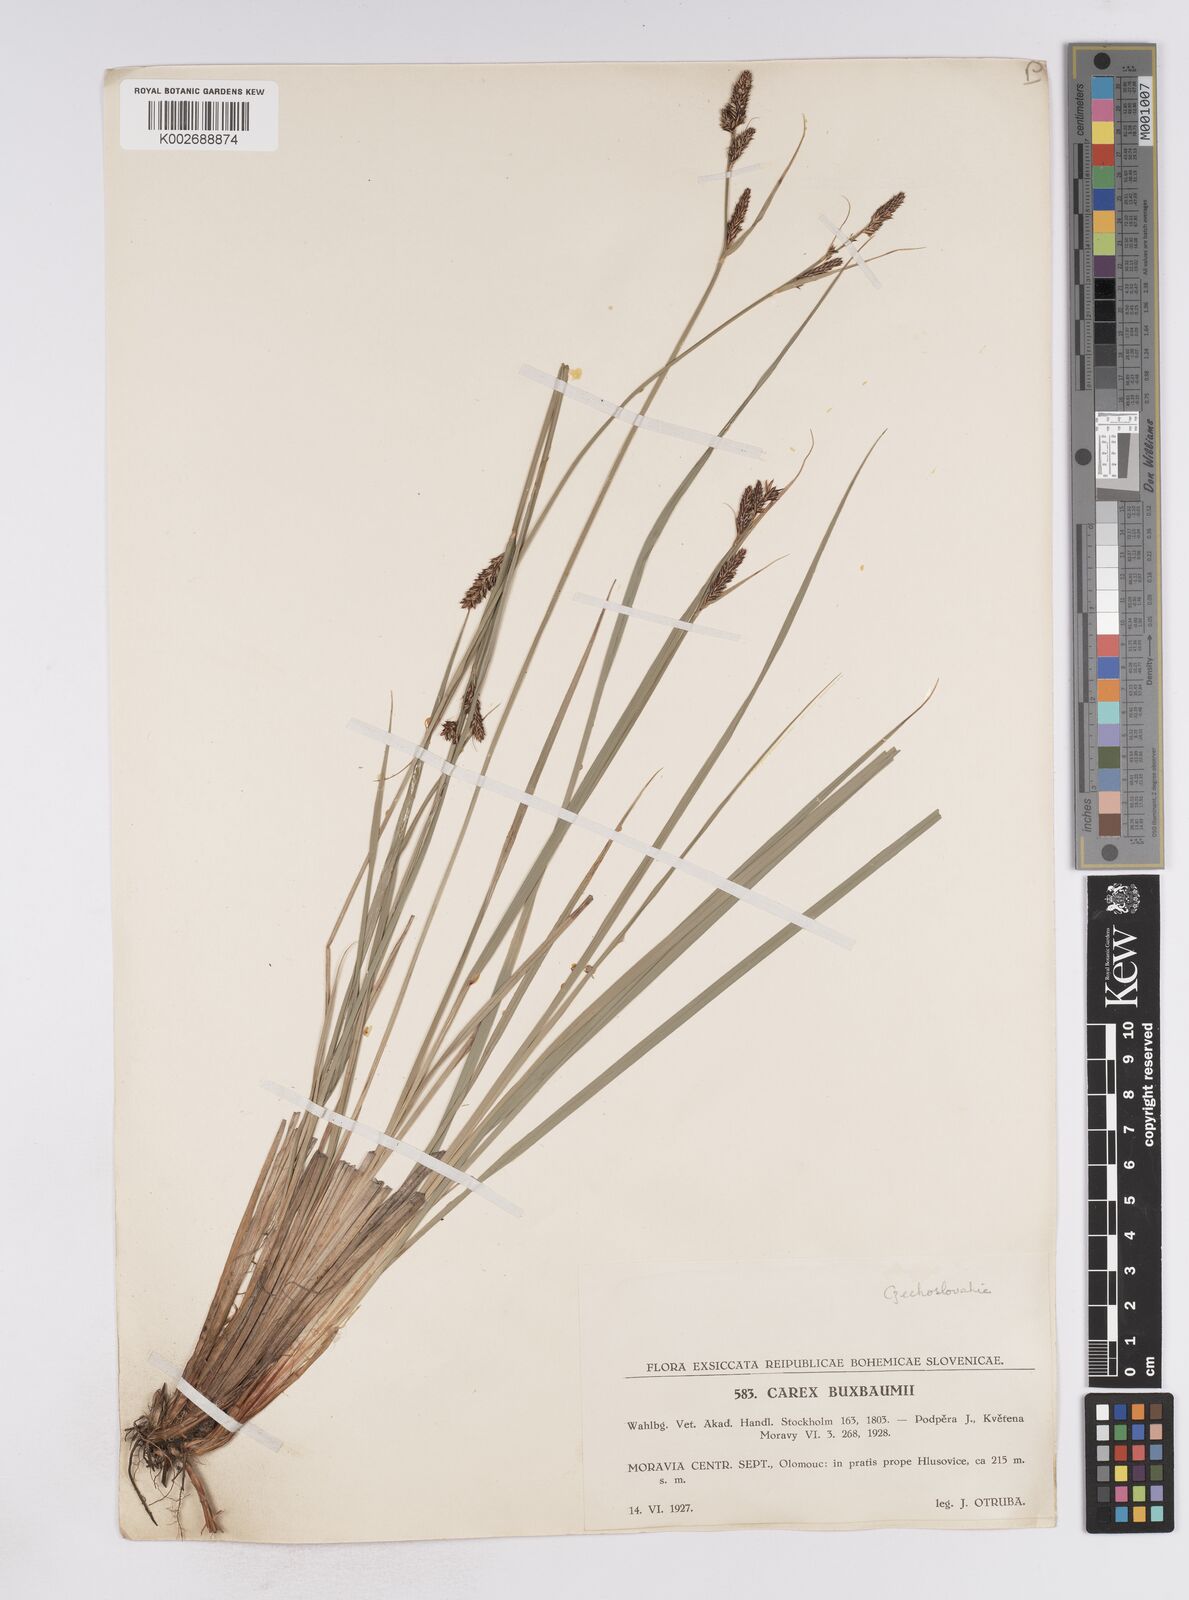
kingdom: Plantae
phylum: Tracheophyta
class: Liliopsida
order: Poales
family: Cyperaceae
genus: Carex
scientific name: Carex buxbaumii
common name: Club sedge
